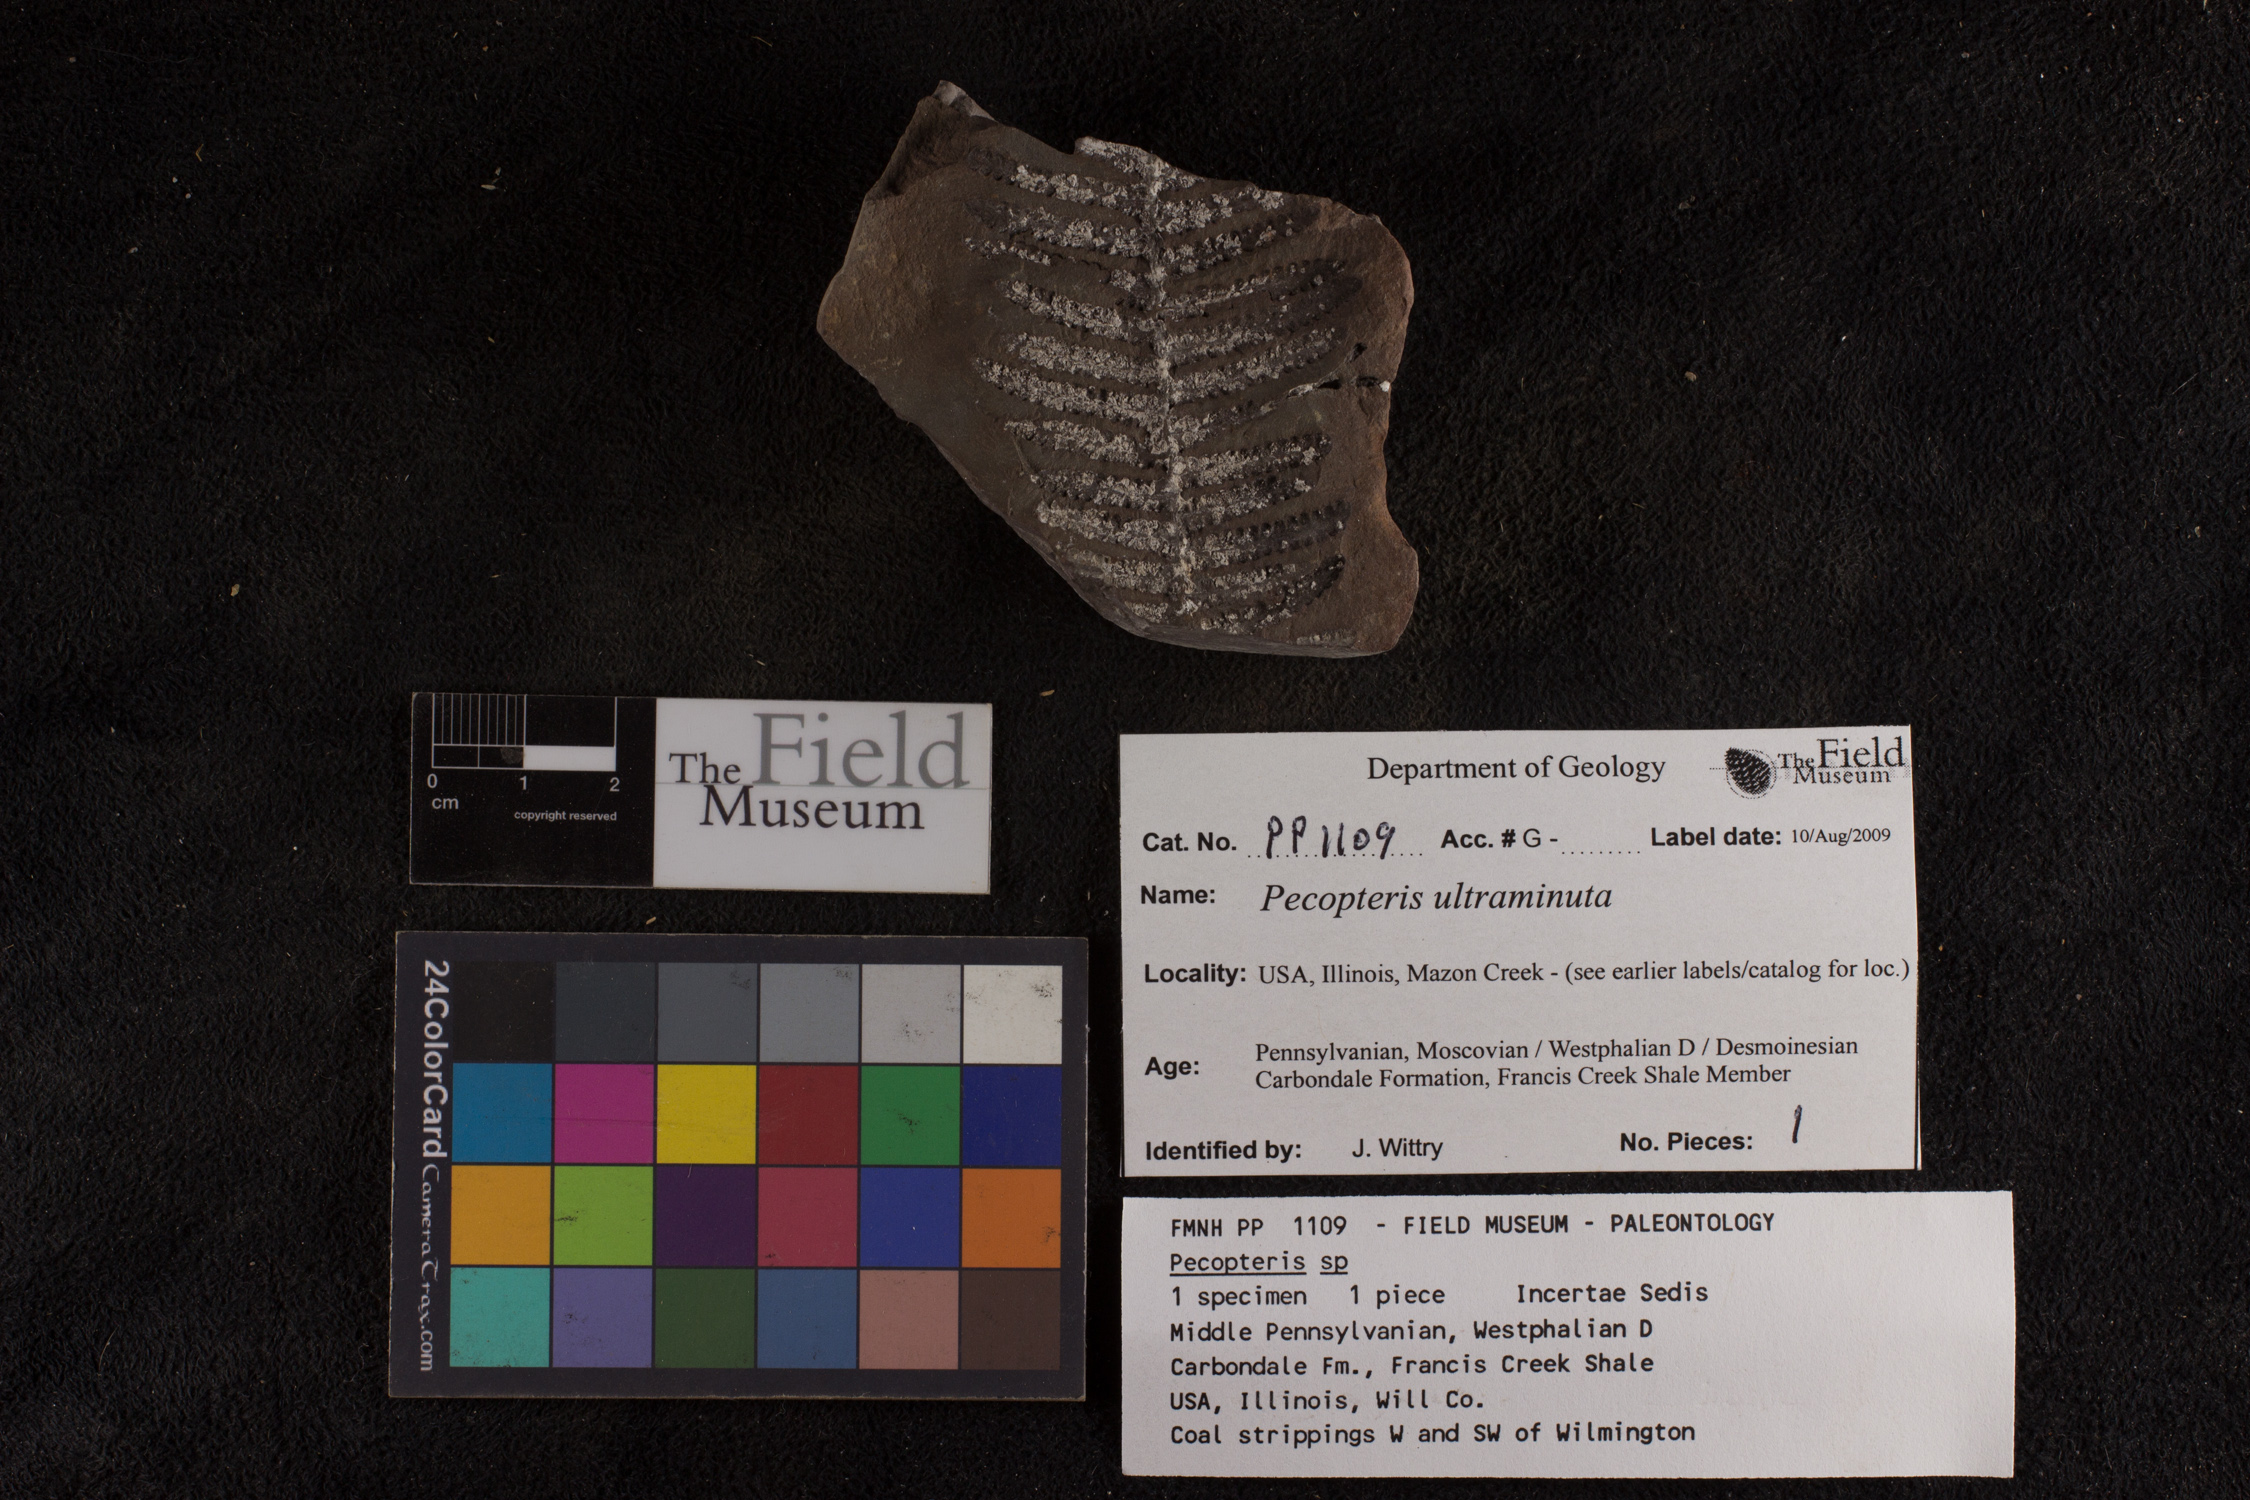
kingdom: Plantae
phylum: Tracheophyta
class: Polypodiopsida
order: Marattiales
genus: Cyathocarpus
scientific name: Cyathocarpus
